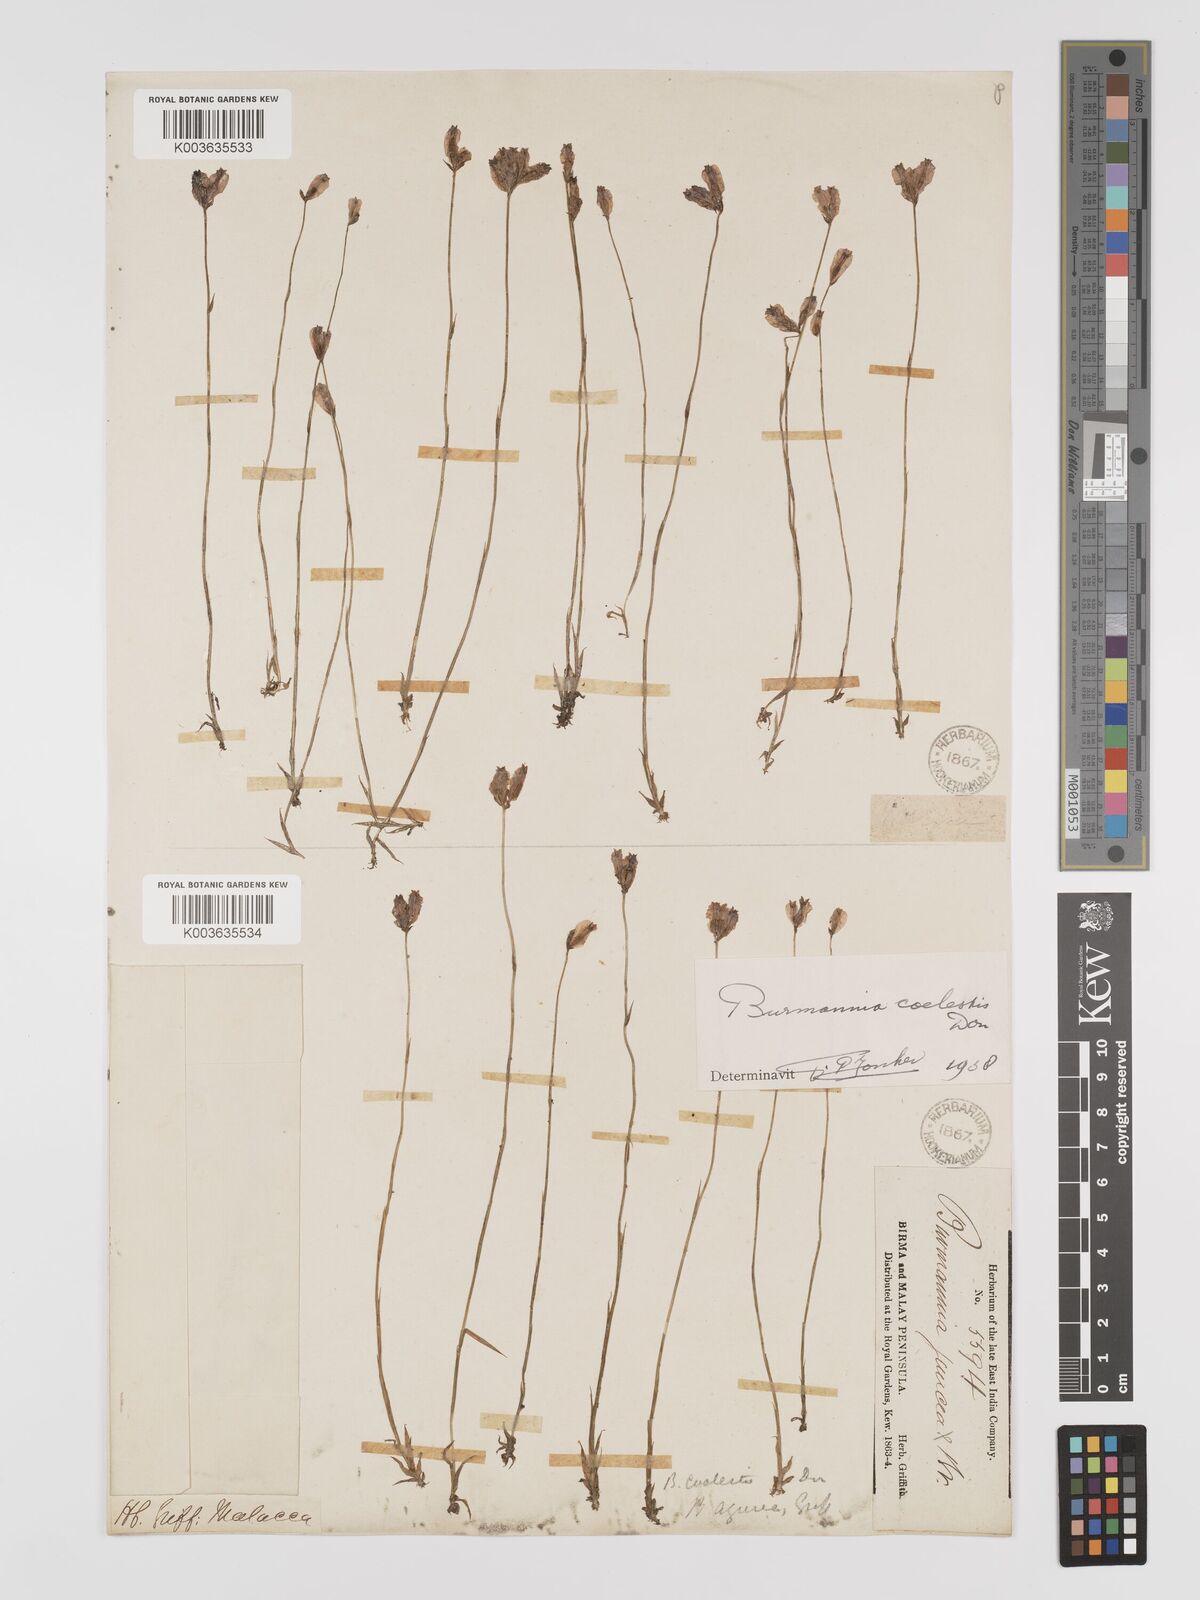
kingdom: Plantae
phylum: Tracheophyta
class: Liliopsida
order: Dioscoreales
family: Burmanniaceae
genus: Burmannia
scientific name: Burmannia coelestis
